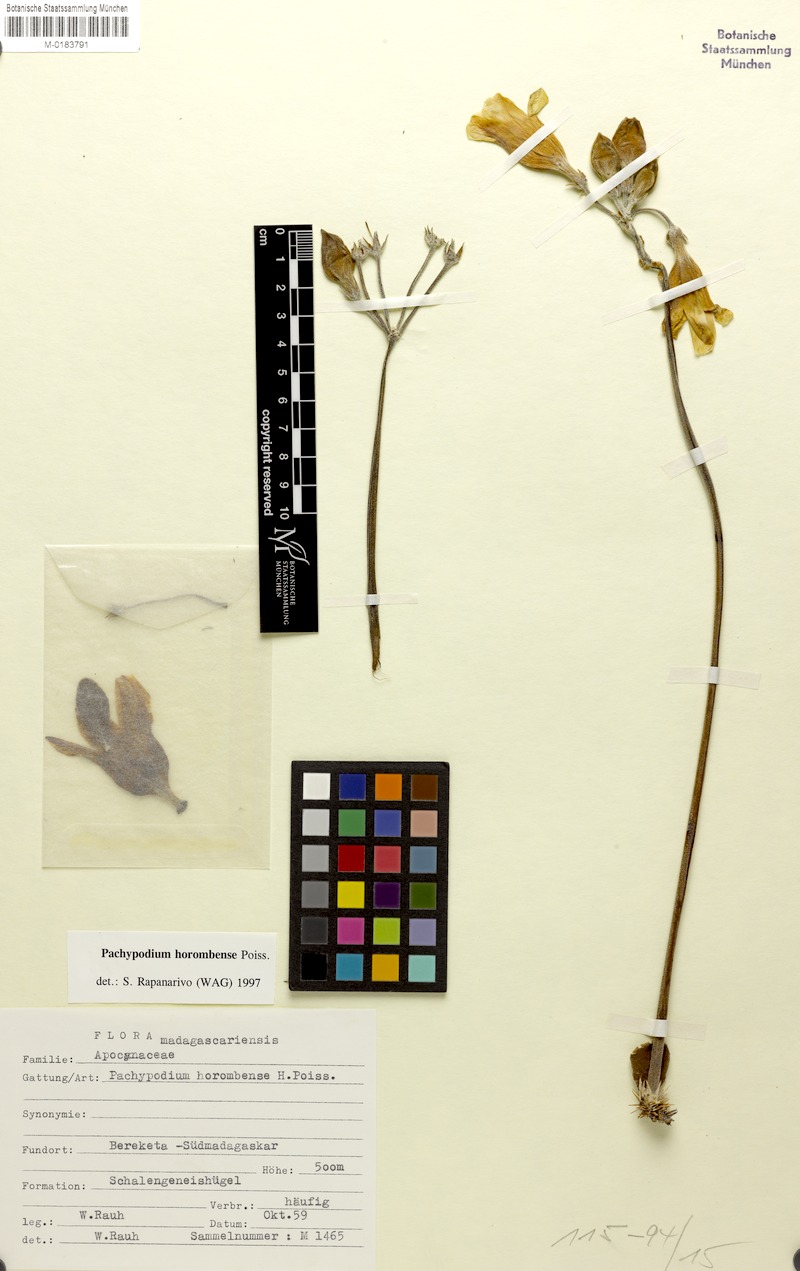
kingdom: Plantae
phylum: Tracheophyta
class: Magnoliopsida
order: Gentianales
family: Apocynaceae
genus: Pachypodium
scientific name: Pachypodium horombense
